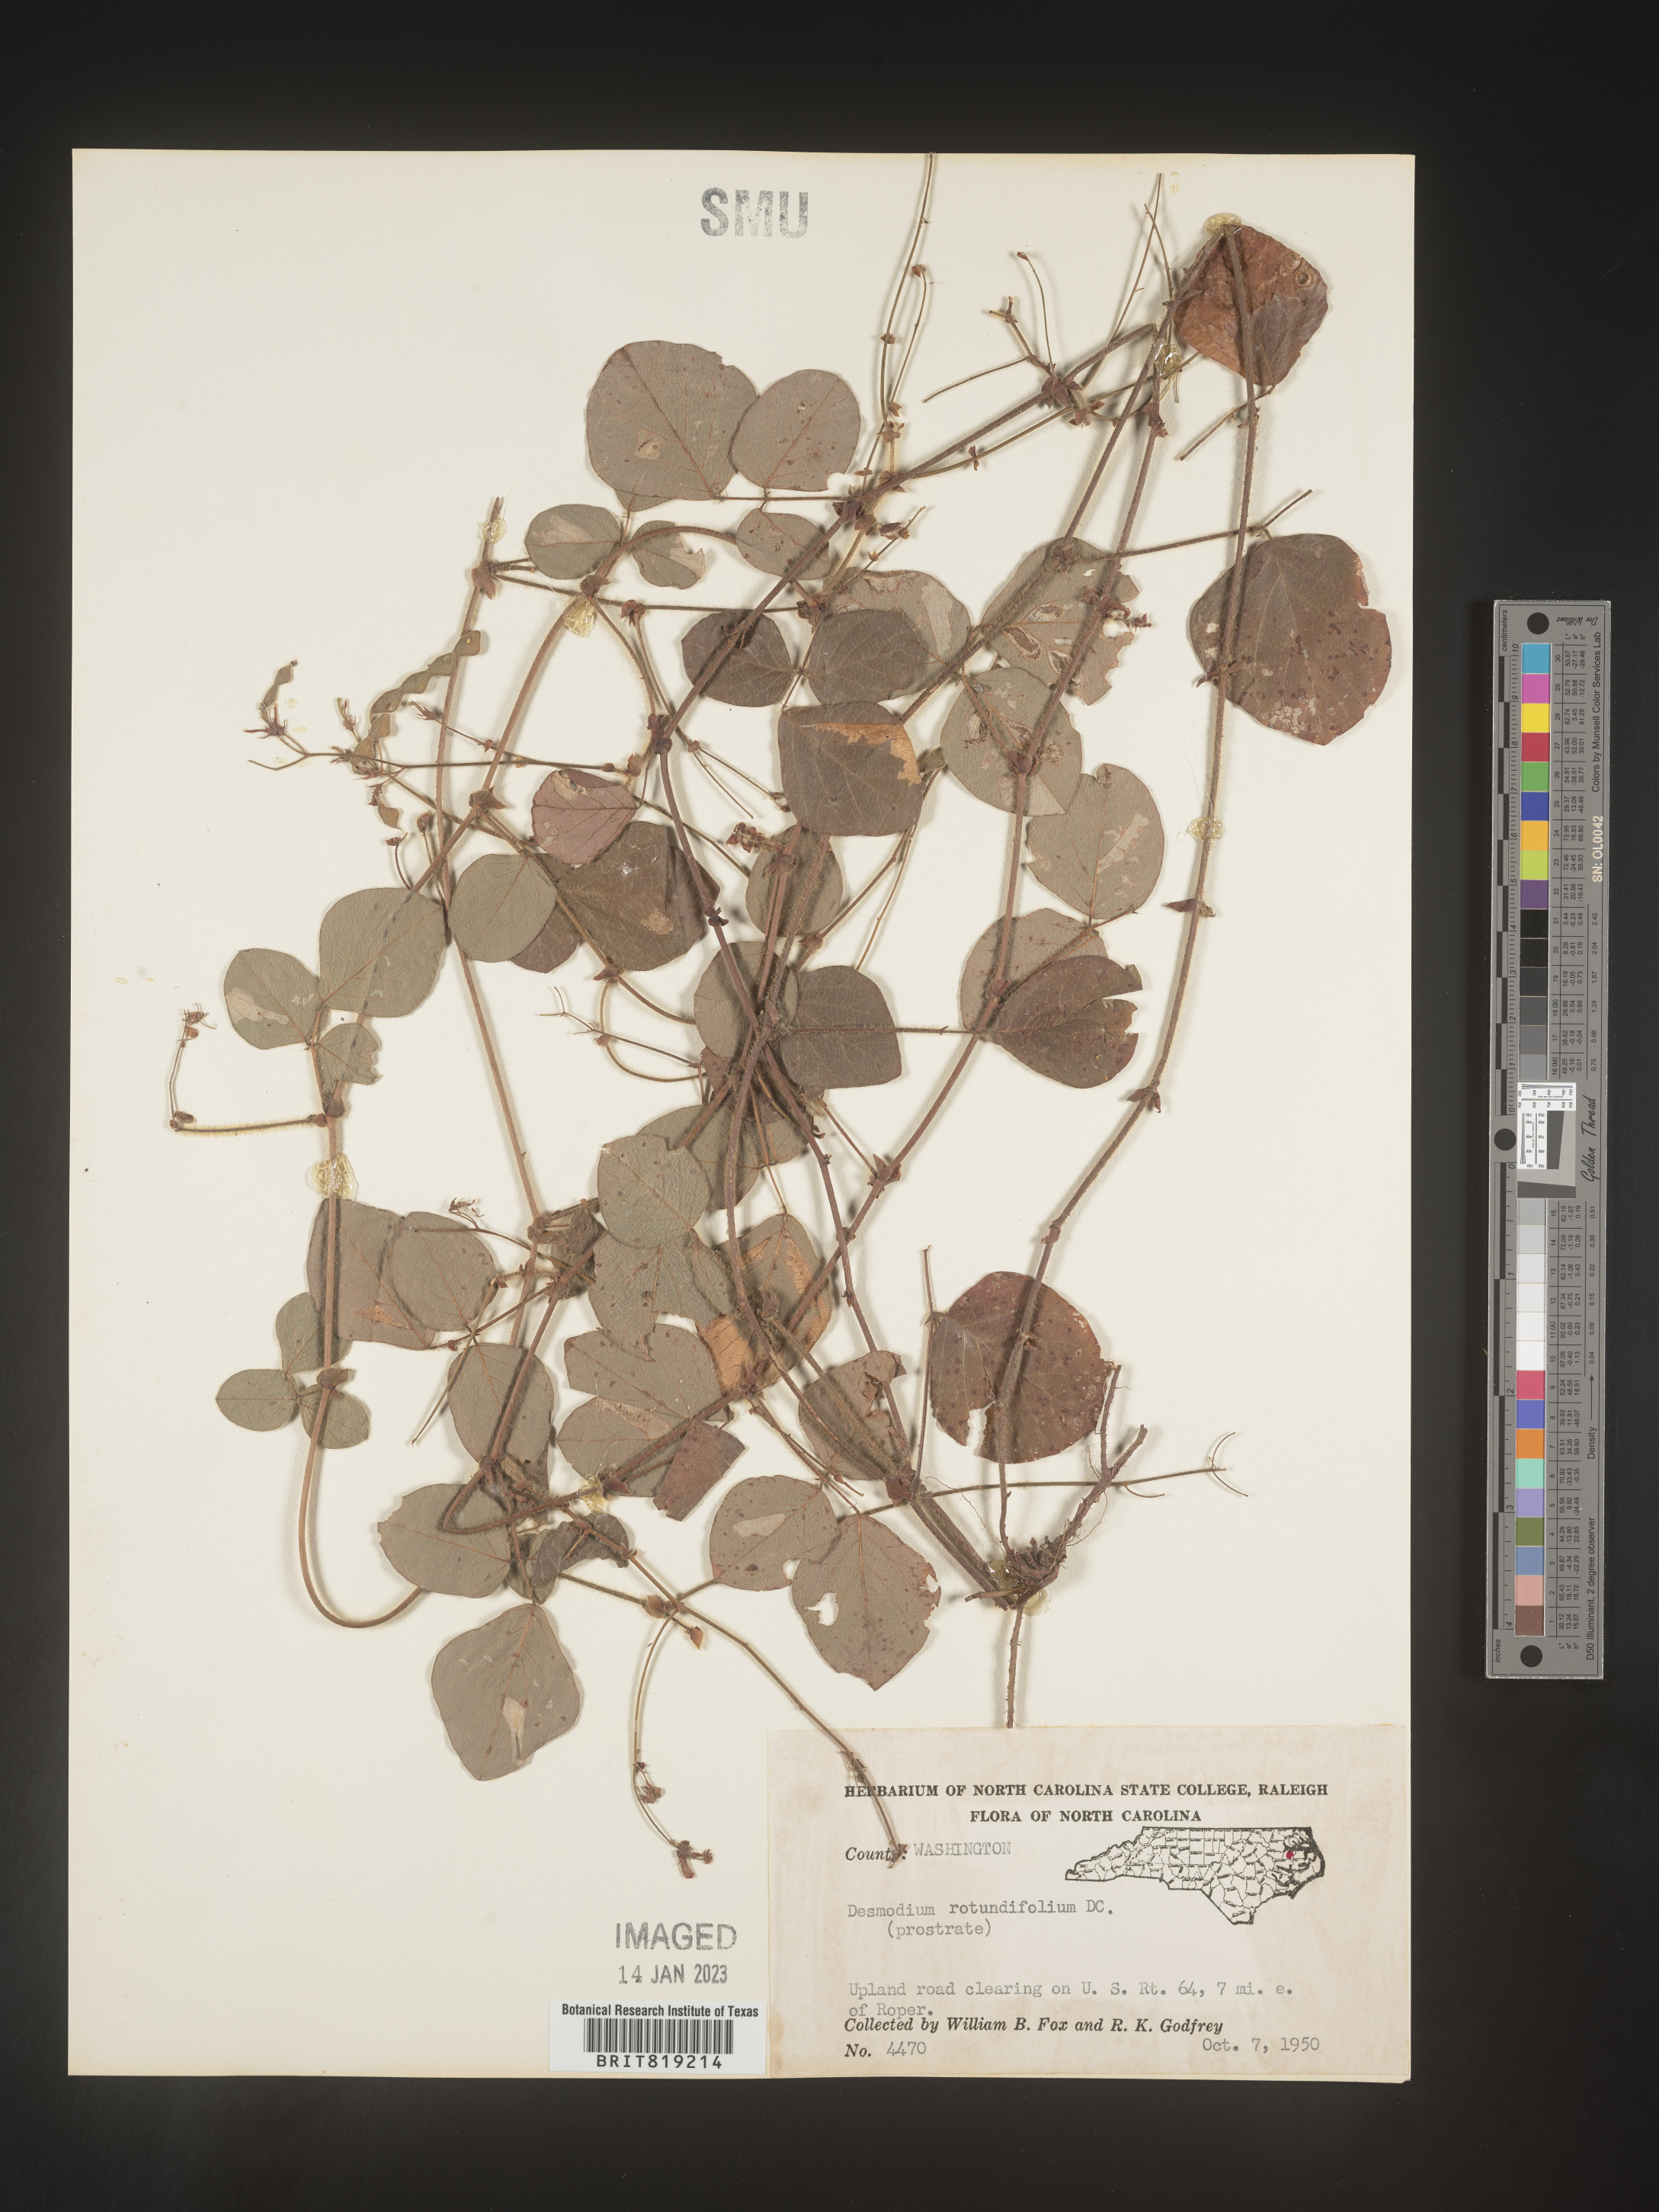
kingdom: Plantae
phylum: Tracheophyta
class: Magnoliopsida
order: Fabales
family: Fabaceae
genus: Desmodium
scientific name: Desmodium rotundifolium
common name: Dollarleaf
